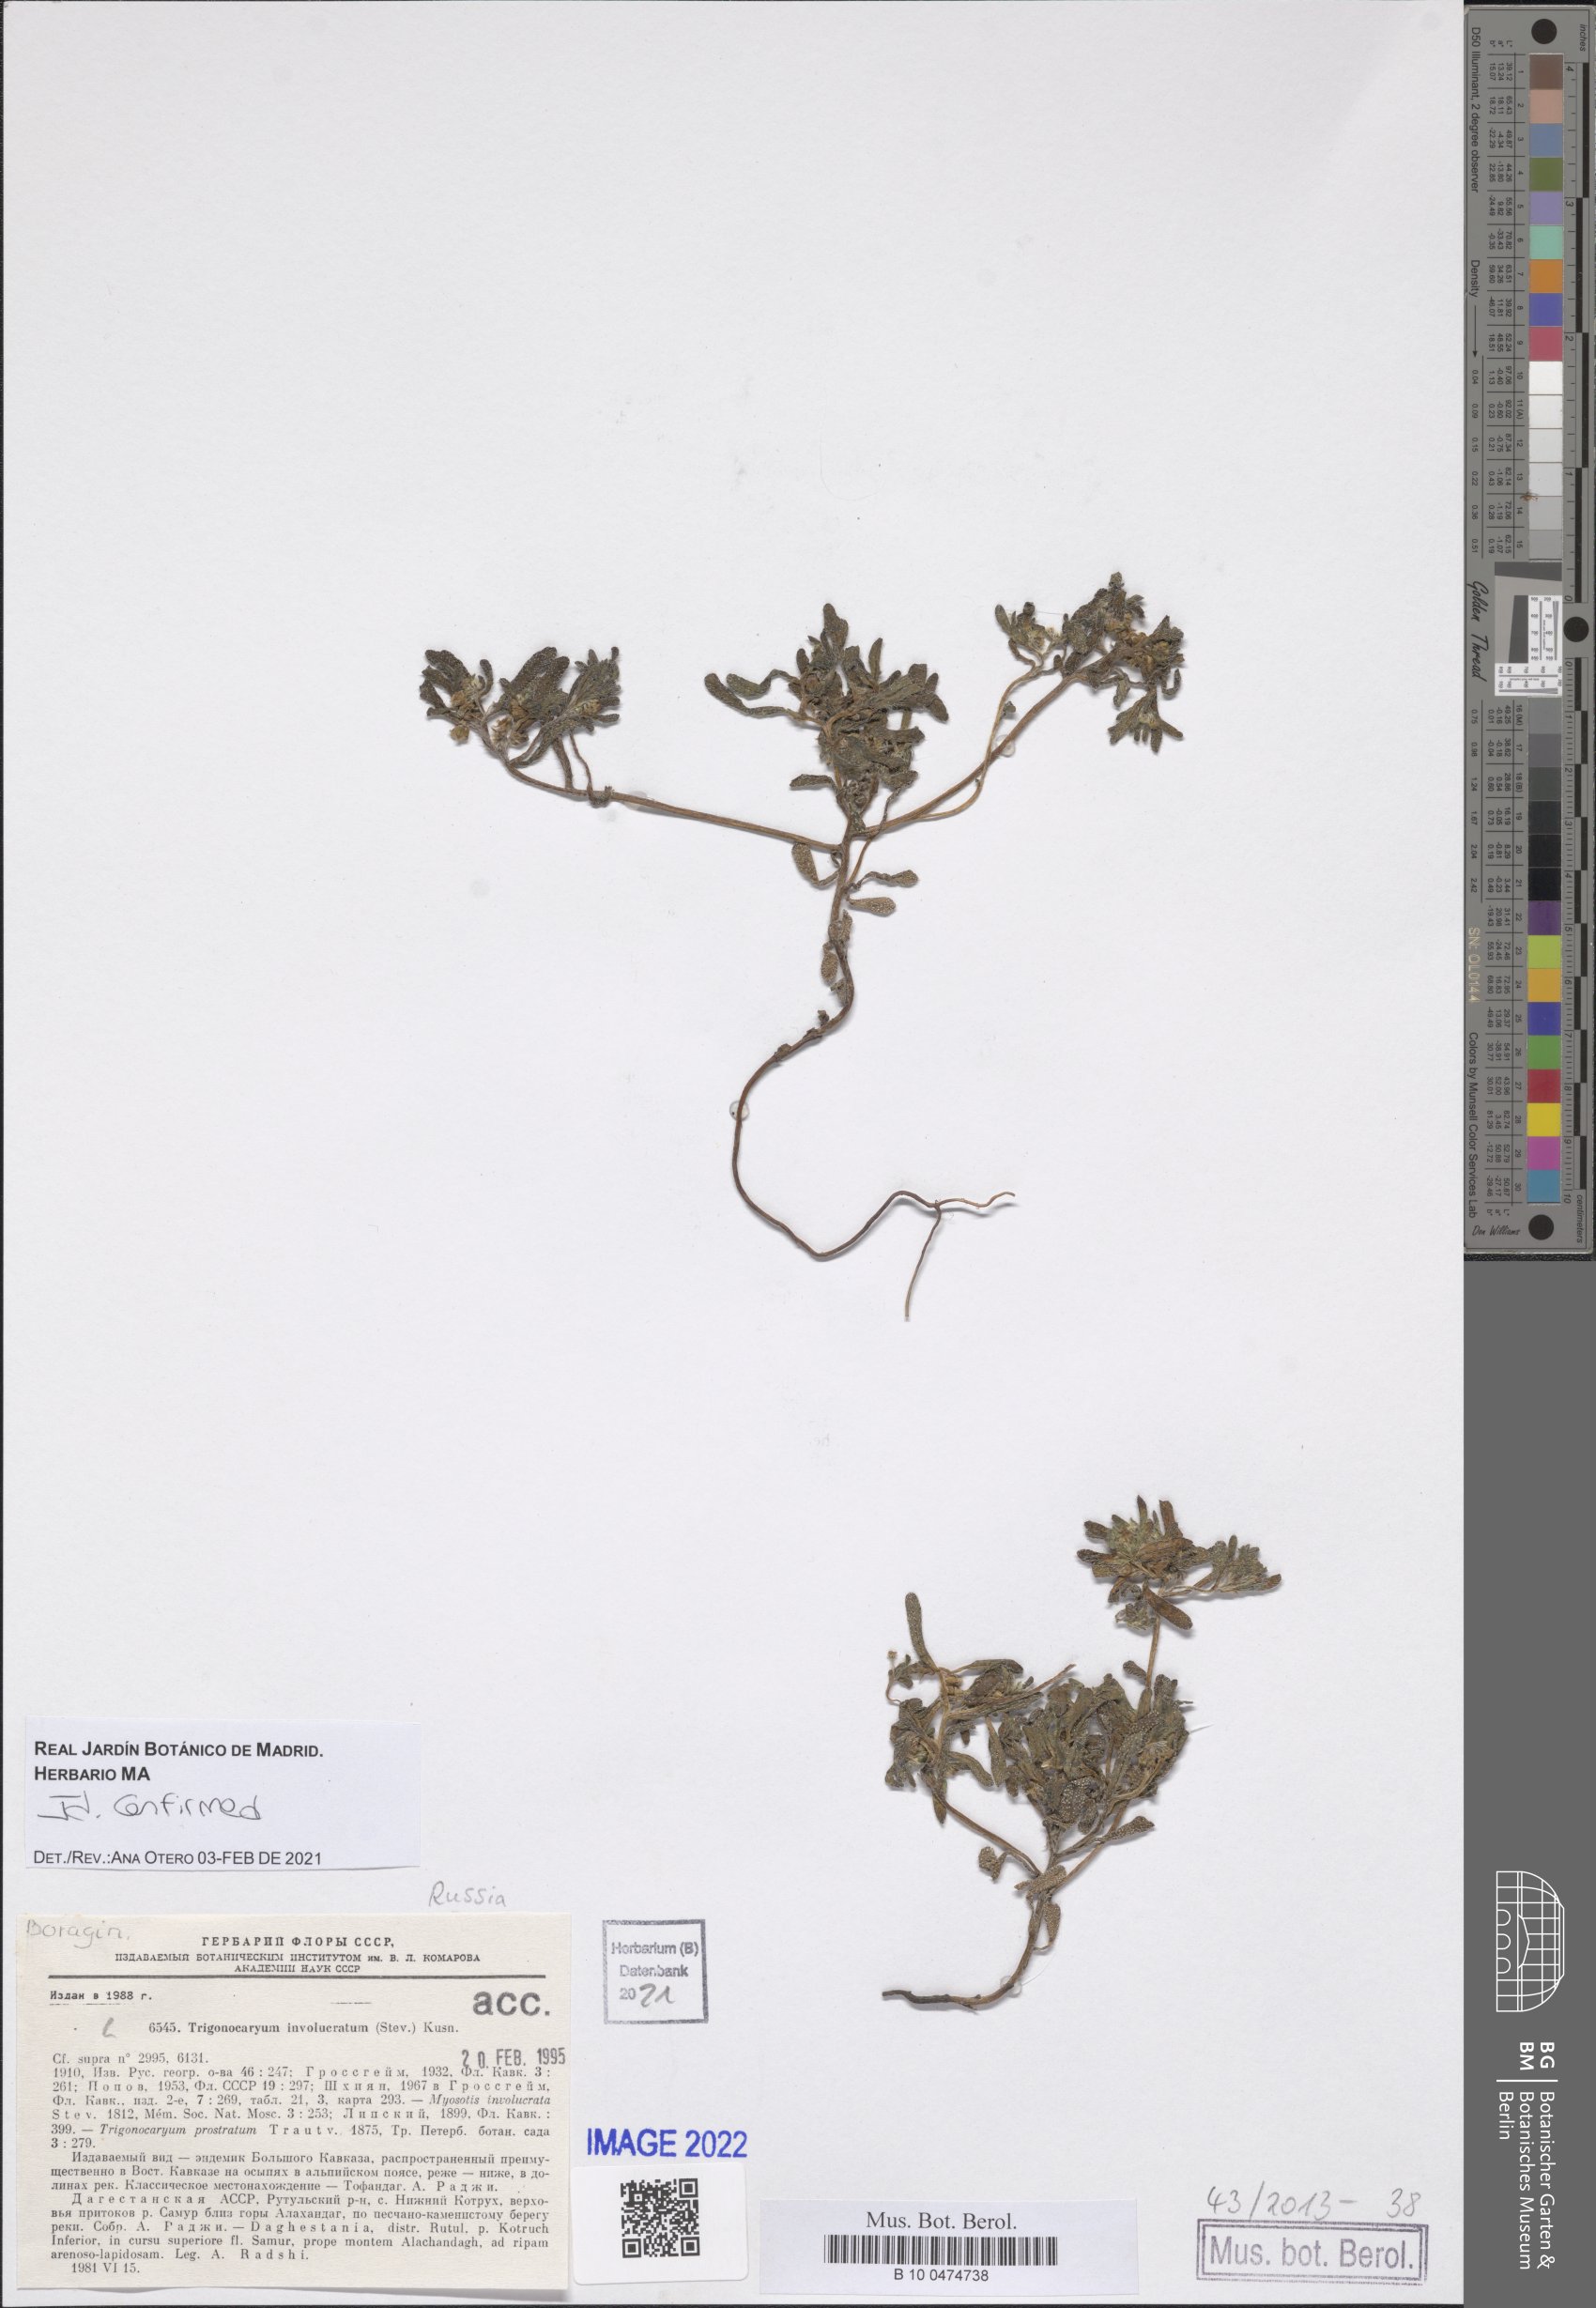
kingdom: Plantae
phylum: Tracheophyta
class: Magnoliopsida
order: Boraginales
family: Boraginaceae
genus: Myosotis
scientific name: Myosotis involucrata
